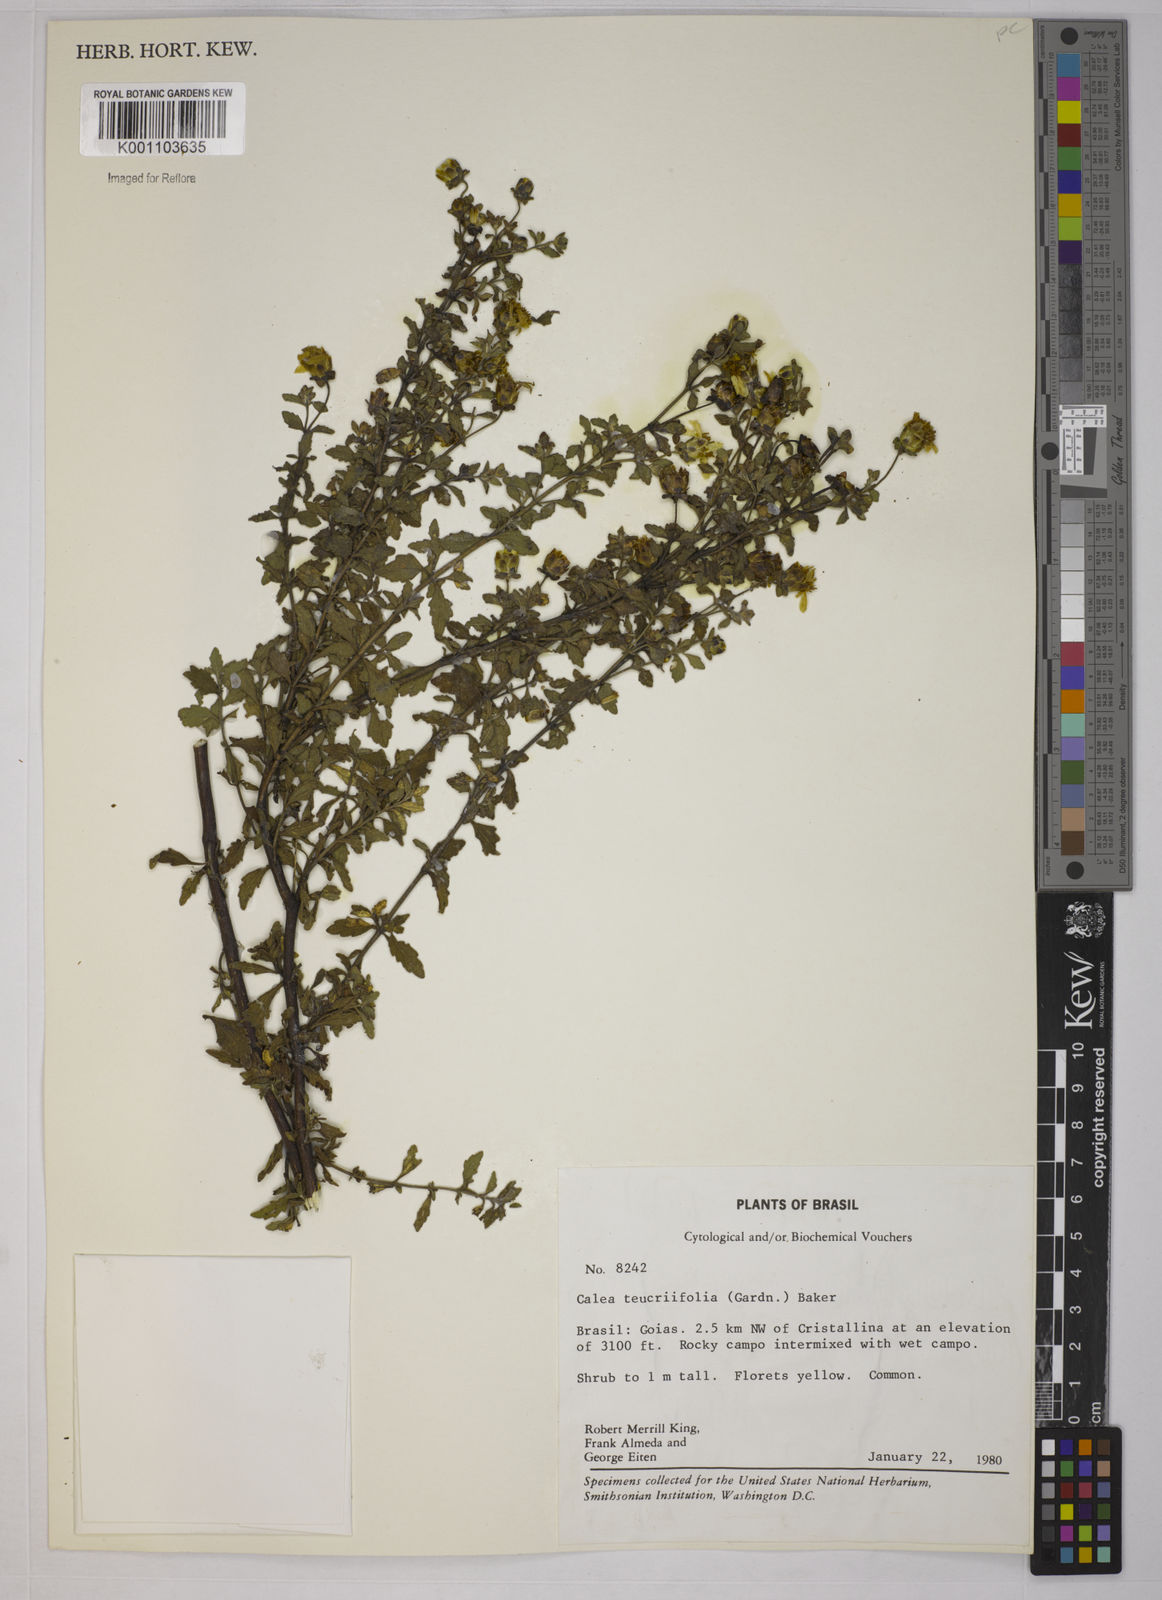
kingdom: Plantae
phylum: Tracheophyta
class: Magnoliopsida
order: Asterales
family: Asteraceae
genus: Calea
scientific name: Calea teucriifolia
